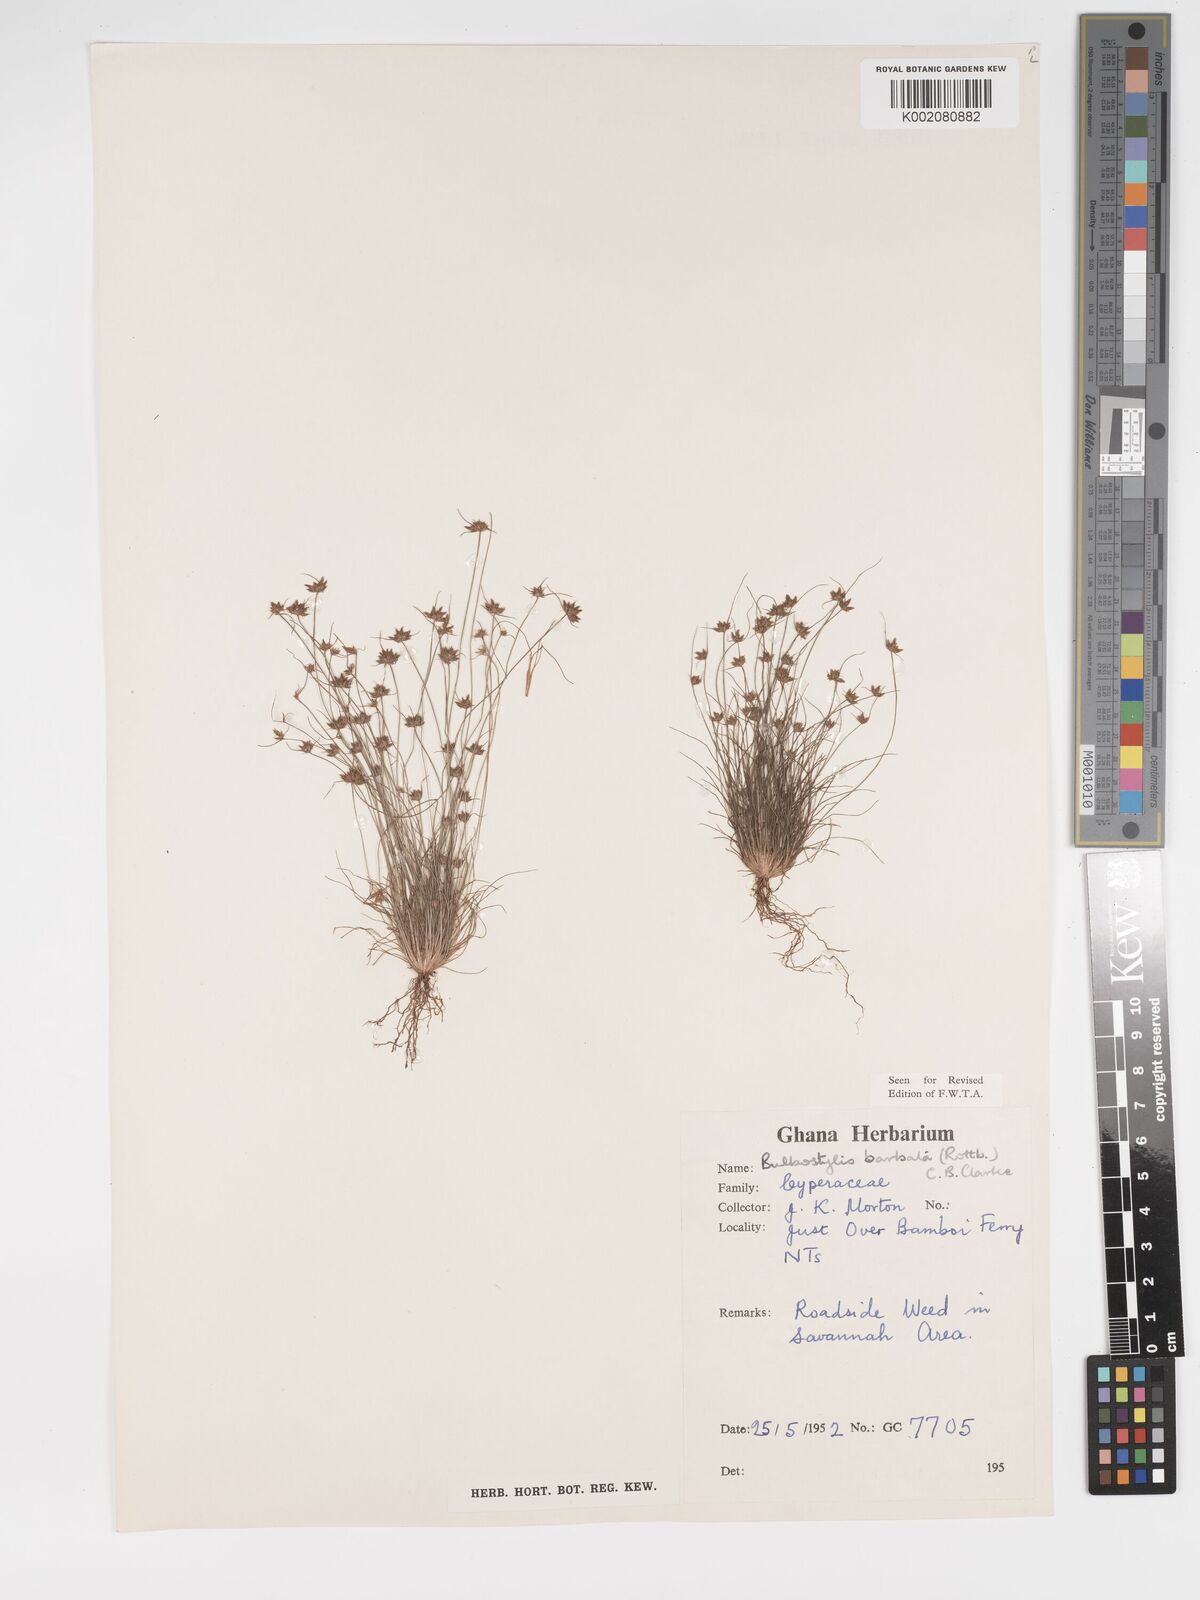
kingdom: Plantae
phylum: Tracheophyta
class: Liliopsida
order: Poales
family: Cyperaceae
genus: Bulbostylis
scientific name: Bulbostylis barbata
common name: Watergrass
